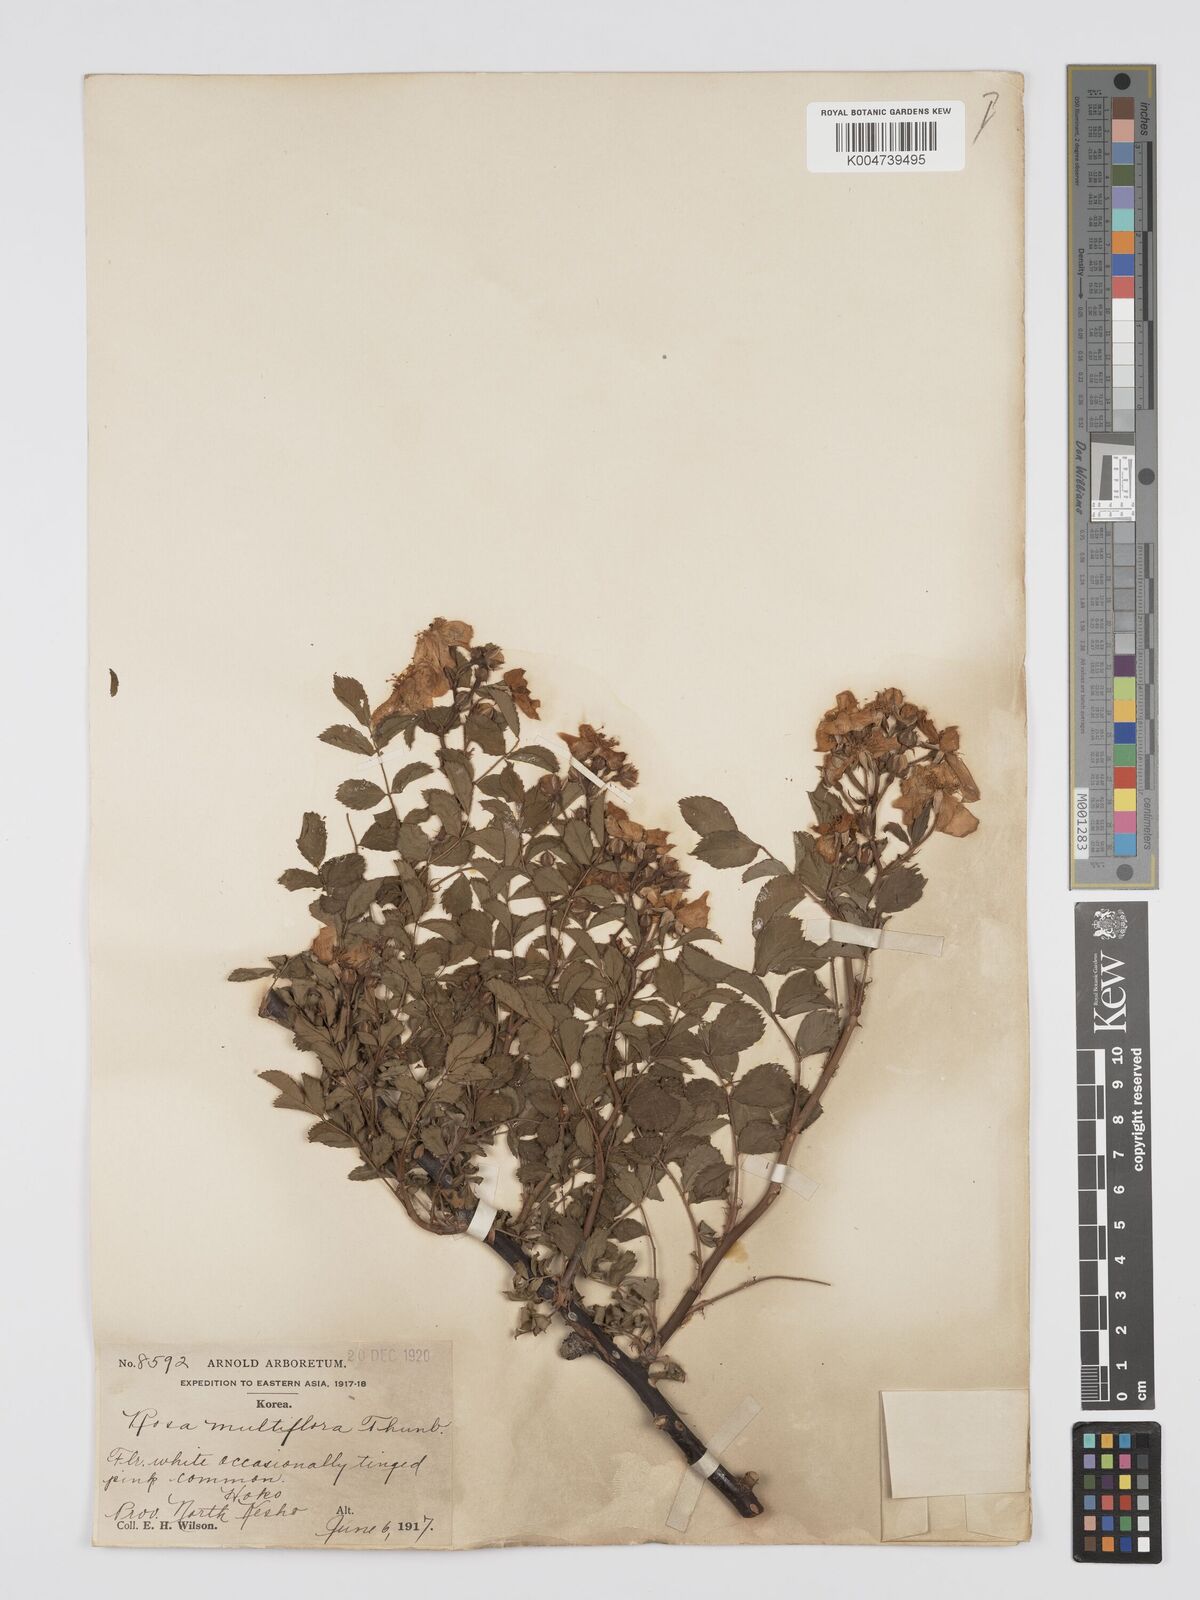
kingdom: Plantae
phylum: Tracheophyta
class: Magnoliopsida
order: Rosales
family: Rosaceae
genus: Rosa
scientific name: Rosa
